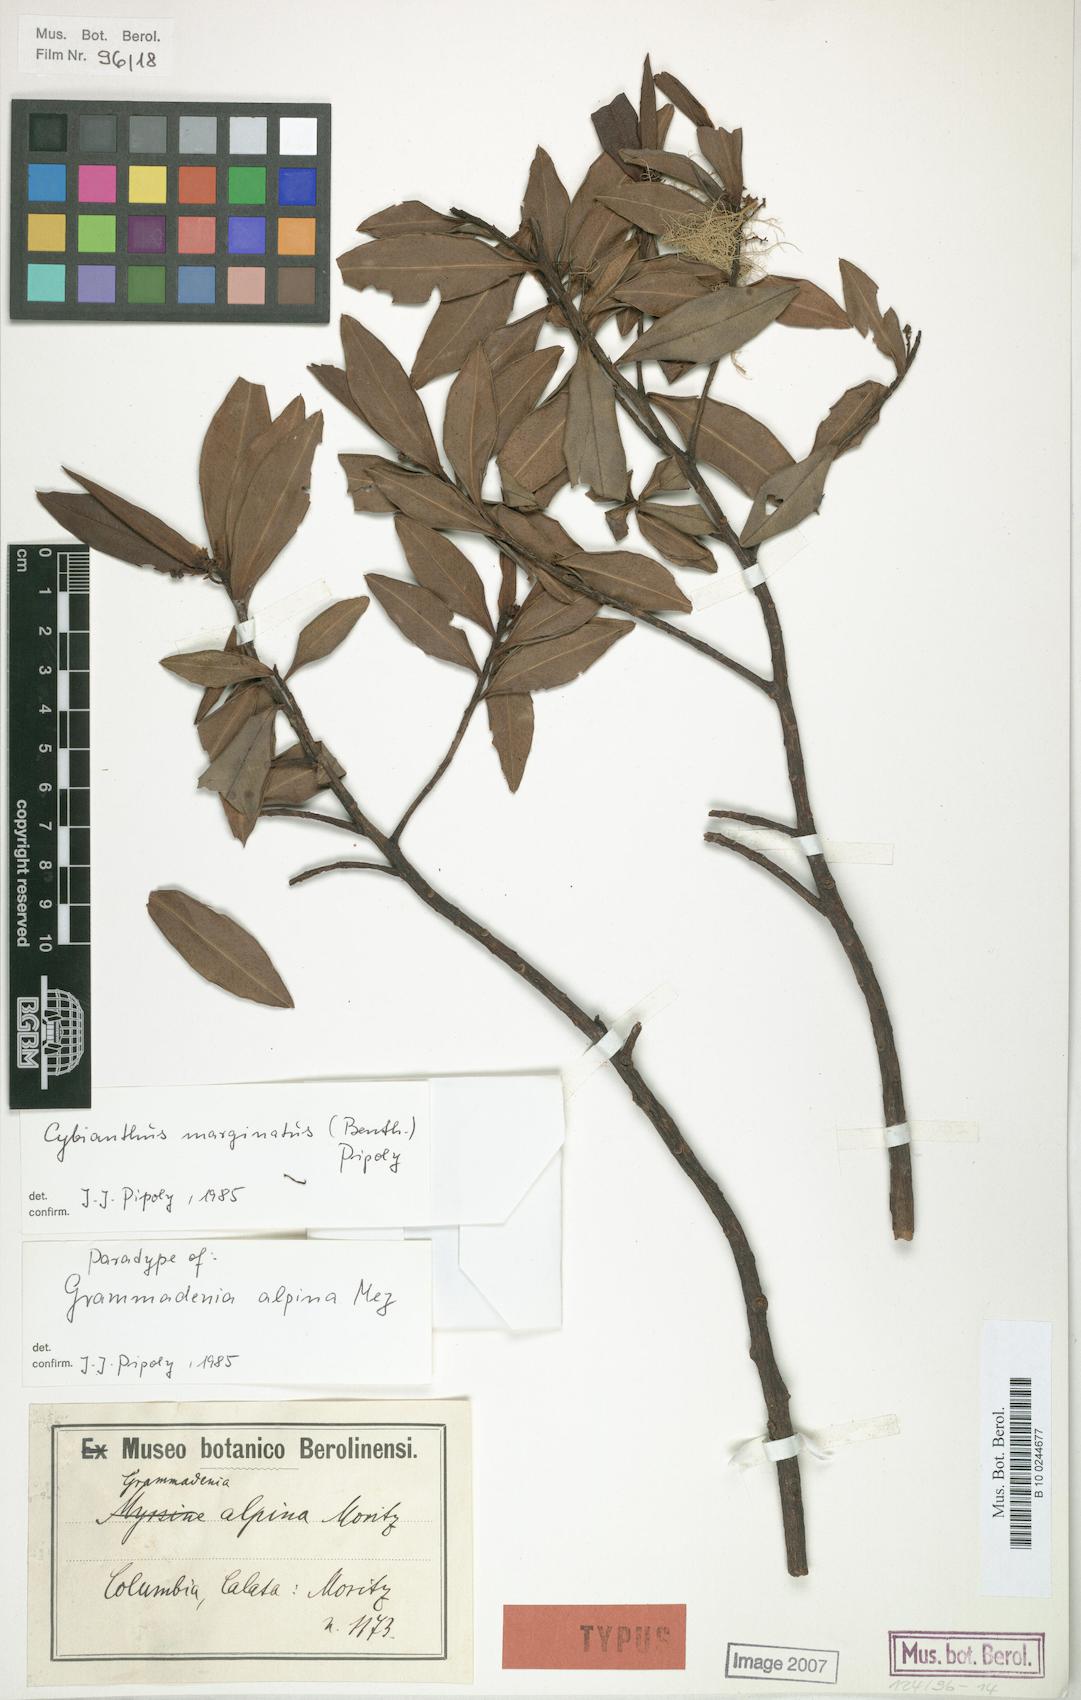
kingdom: Plantae
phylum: Tracheophyta
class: Magnoliopsida
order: Ericales
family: Primulaceae
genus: Cybianthus
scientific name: Cybianthus marginatus
